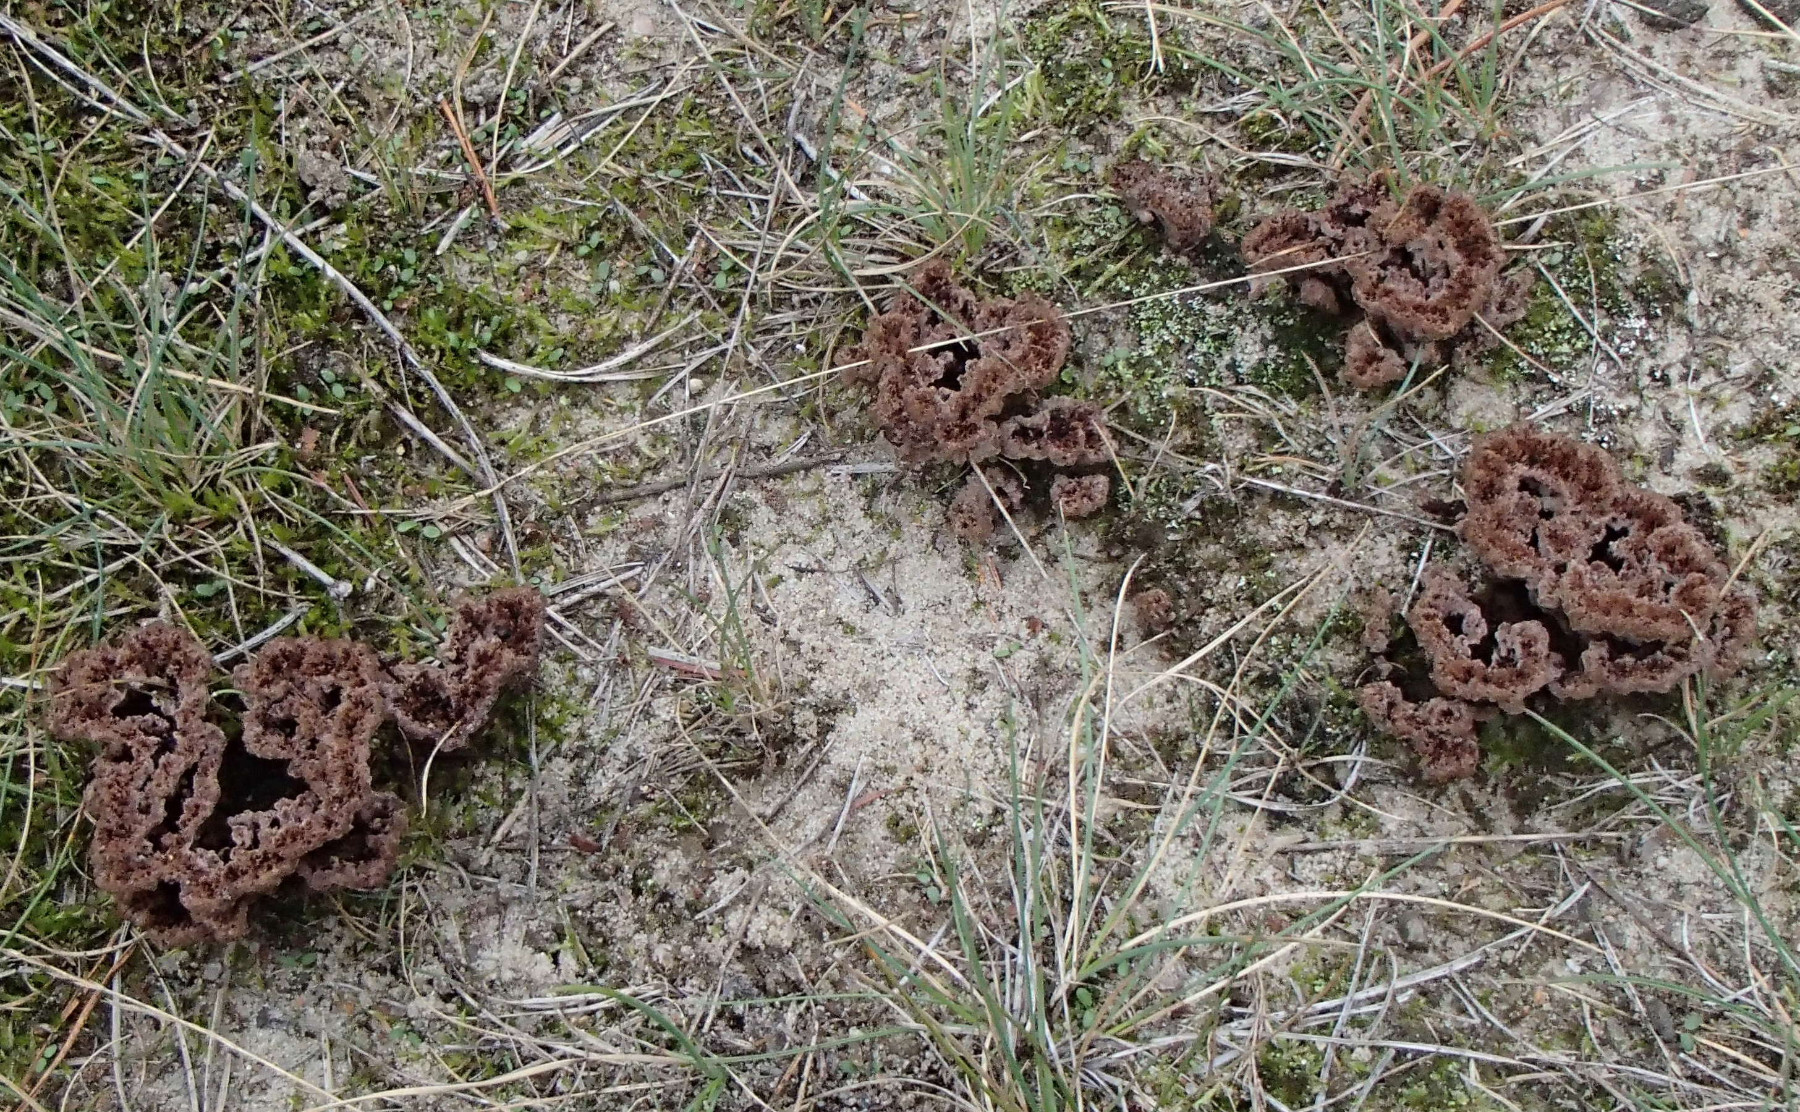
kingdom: Fungi
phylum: Basidiomycota
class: Agaricomycetes
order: Thelephorales
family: Thelephoraceae
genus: Thelephora
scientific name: Thelephora terrestris
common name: fliget frynsesvamp
